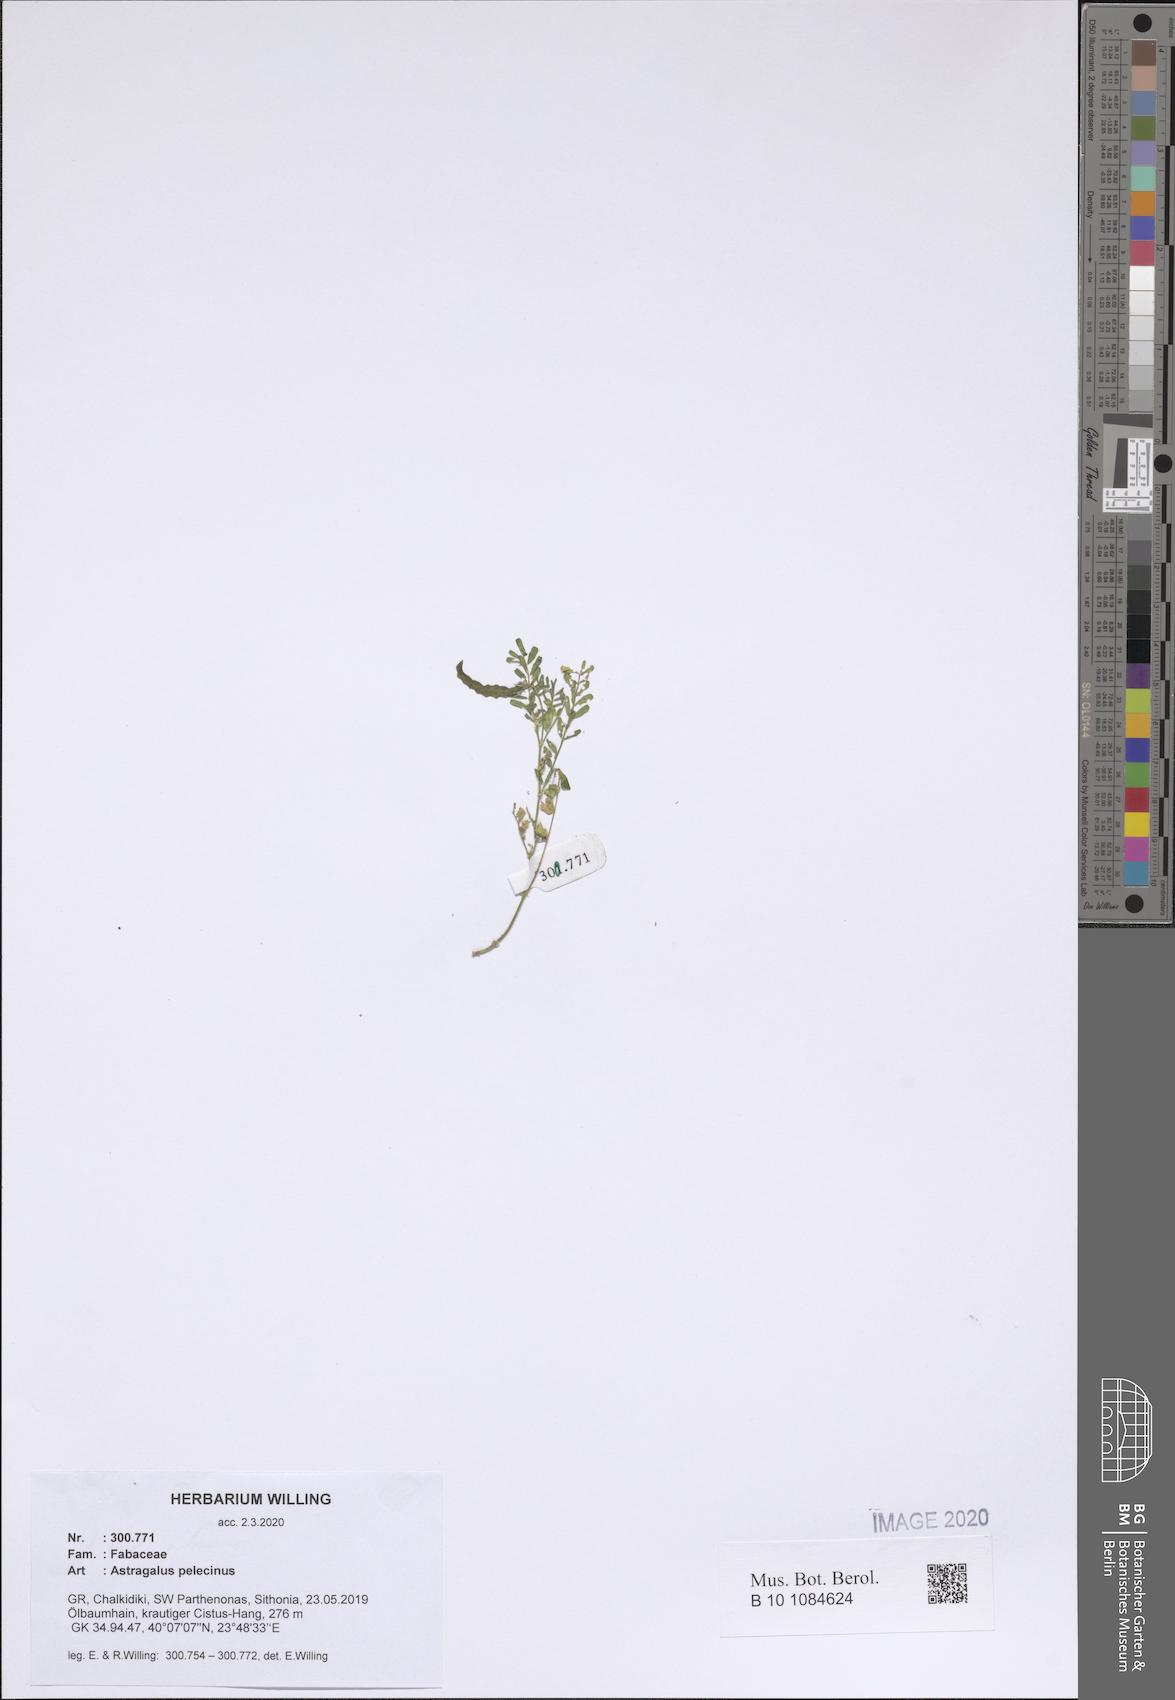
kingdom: Plantae
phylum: Tracheophyta
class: Magnoliopsida
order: Fabales
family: Fabaceae
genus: Biserrula
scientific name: Biserrula pelecinus
